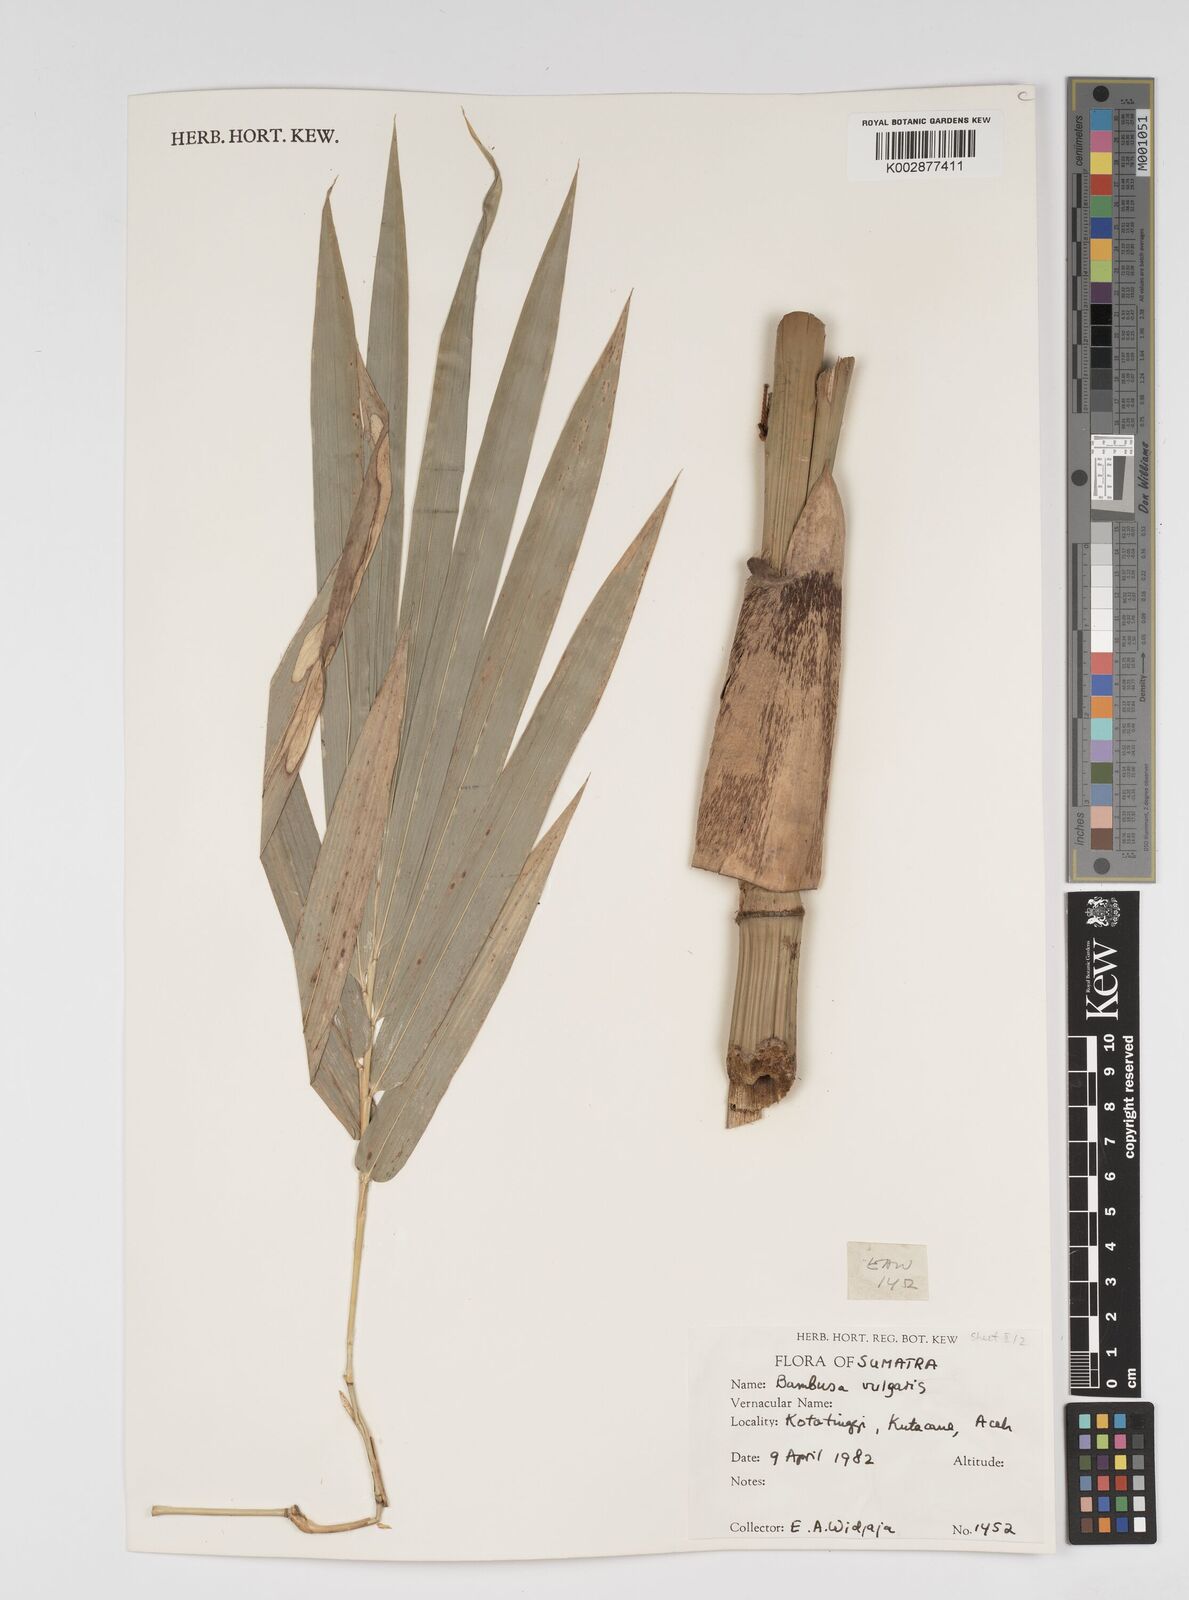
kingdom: Plantae
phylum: Tracheophyta
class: Liliopsida
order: Poales
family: Poaceae
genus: Bambusa
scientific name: Bambusa vulgaris
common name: Common bamboo
